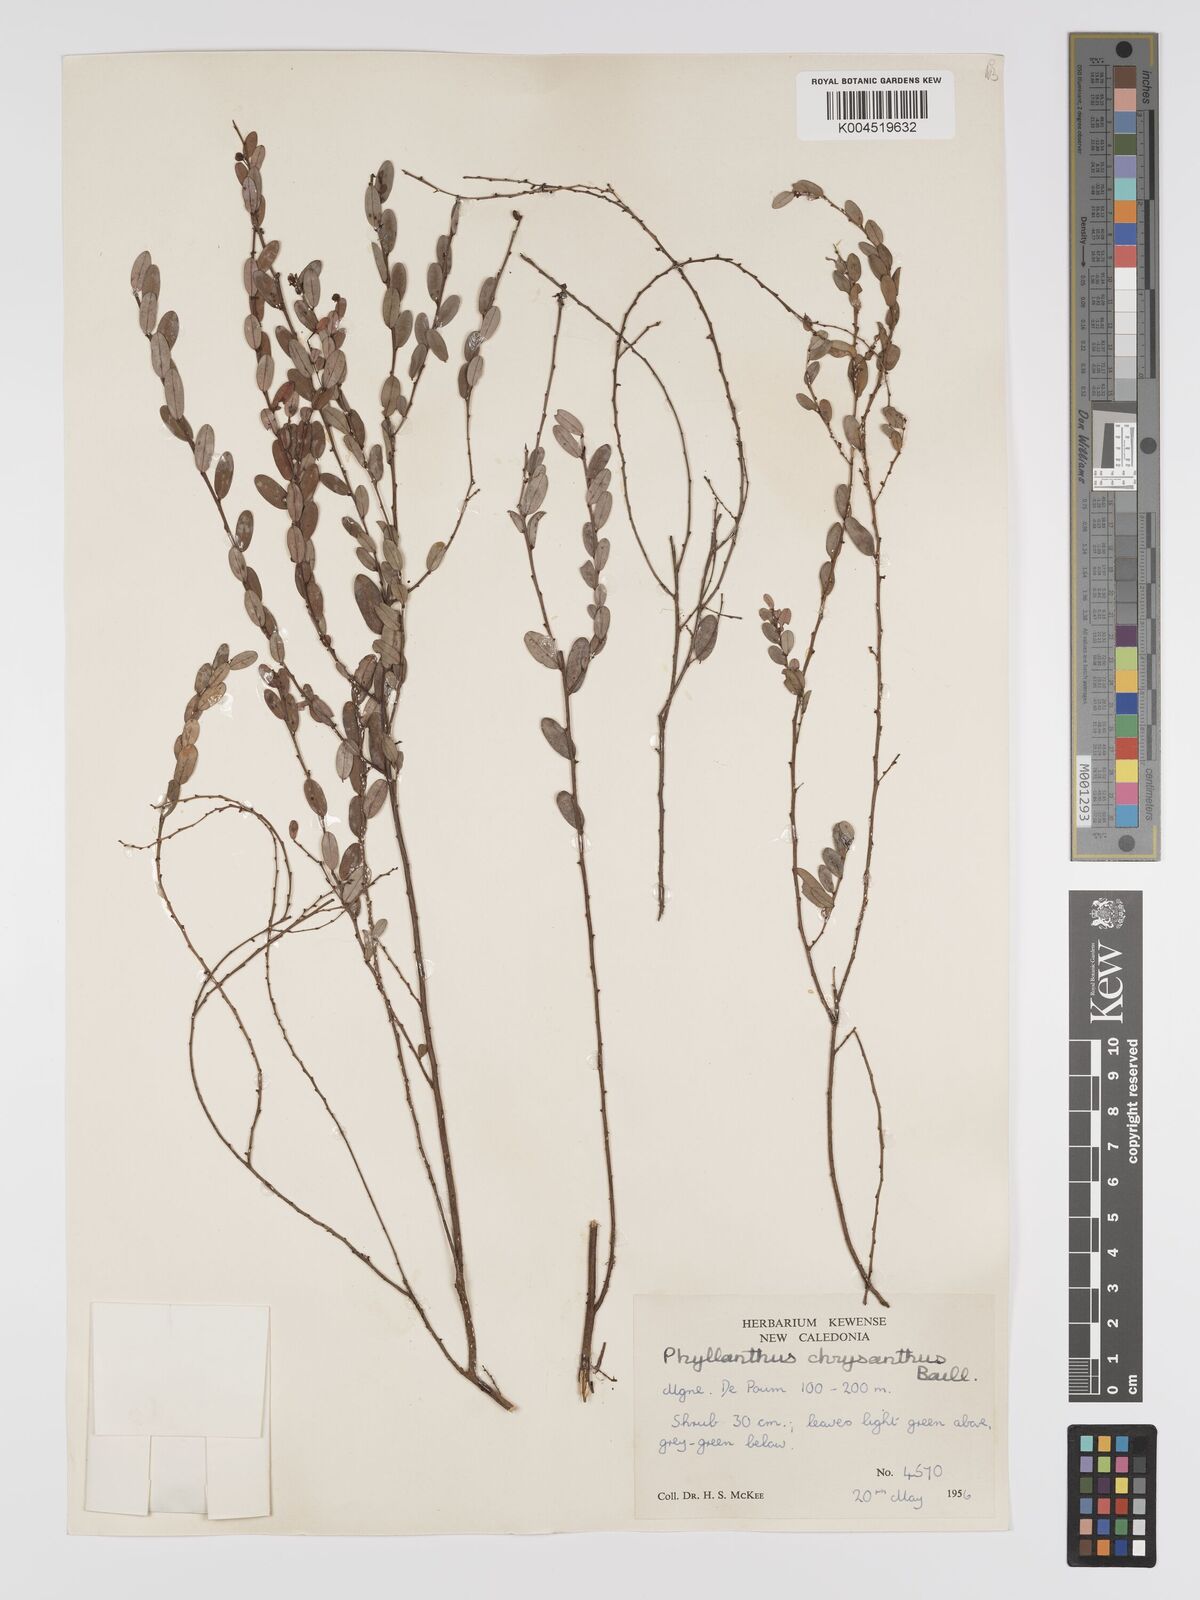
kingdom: Plantae
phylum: Tracheophyta
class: Magnoliopsida
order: Malpighiales
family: Phyllanthaceae
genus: Phyllanthus
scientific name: Phyllanthus chrysanthus
